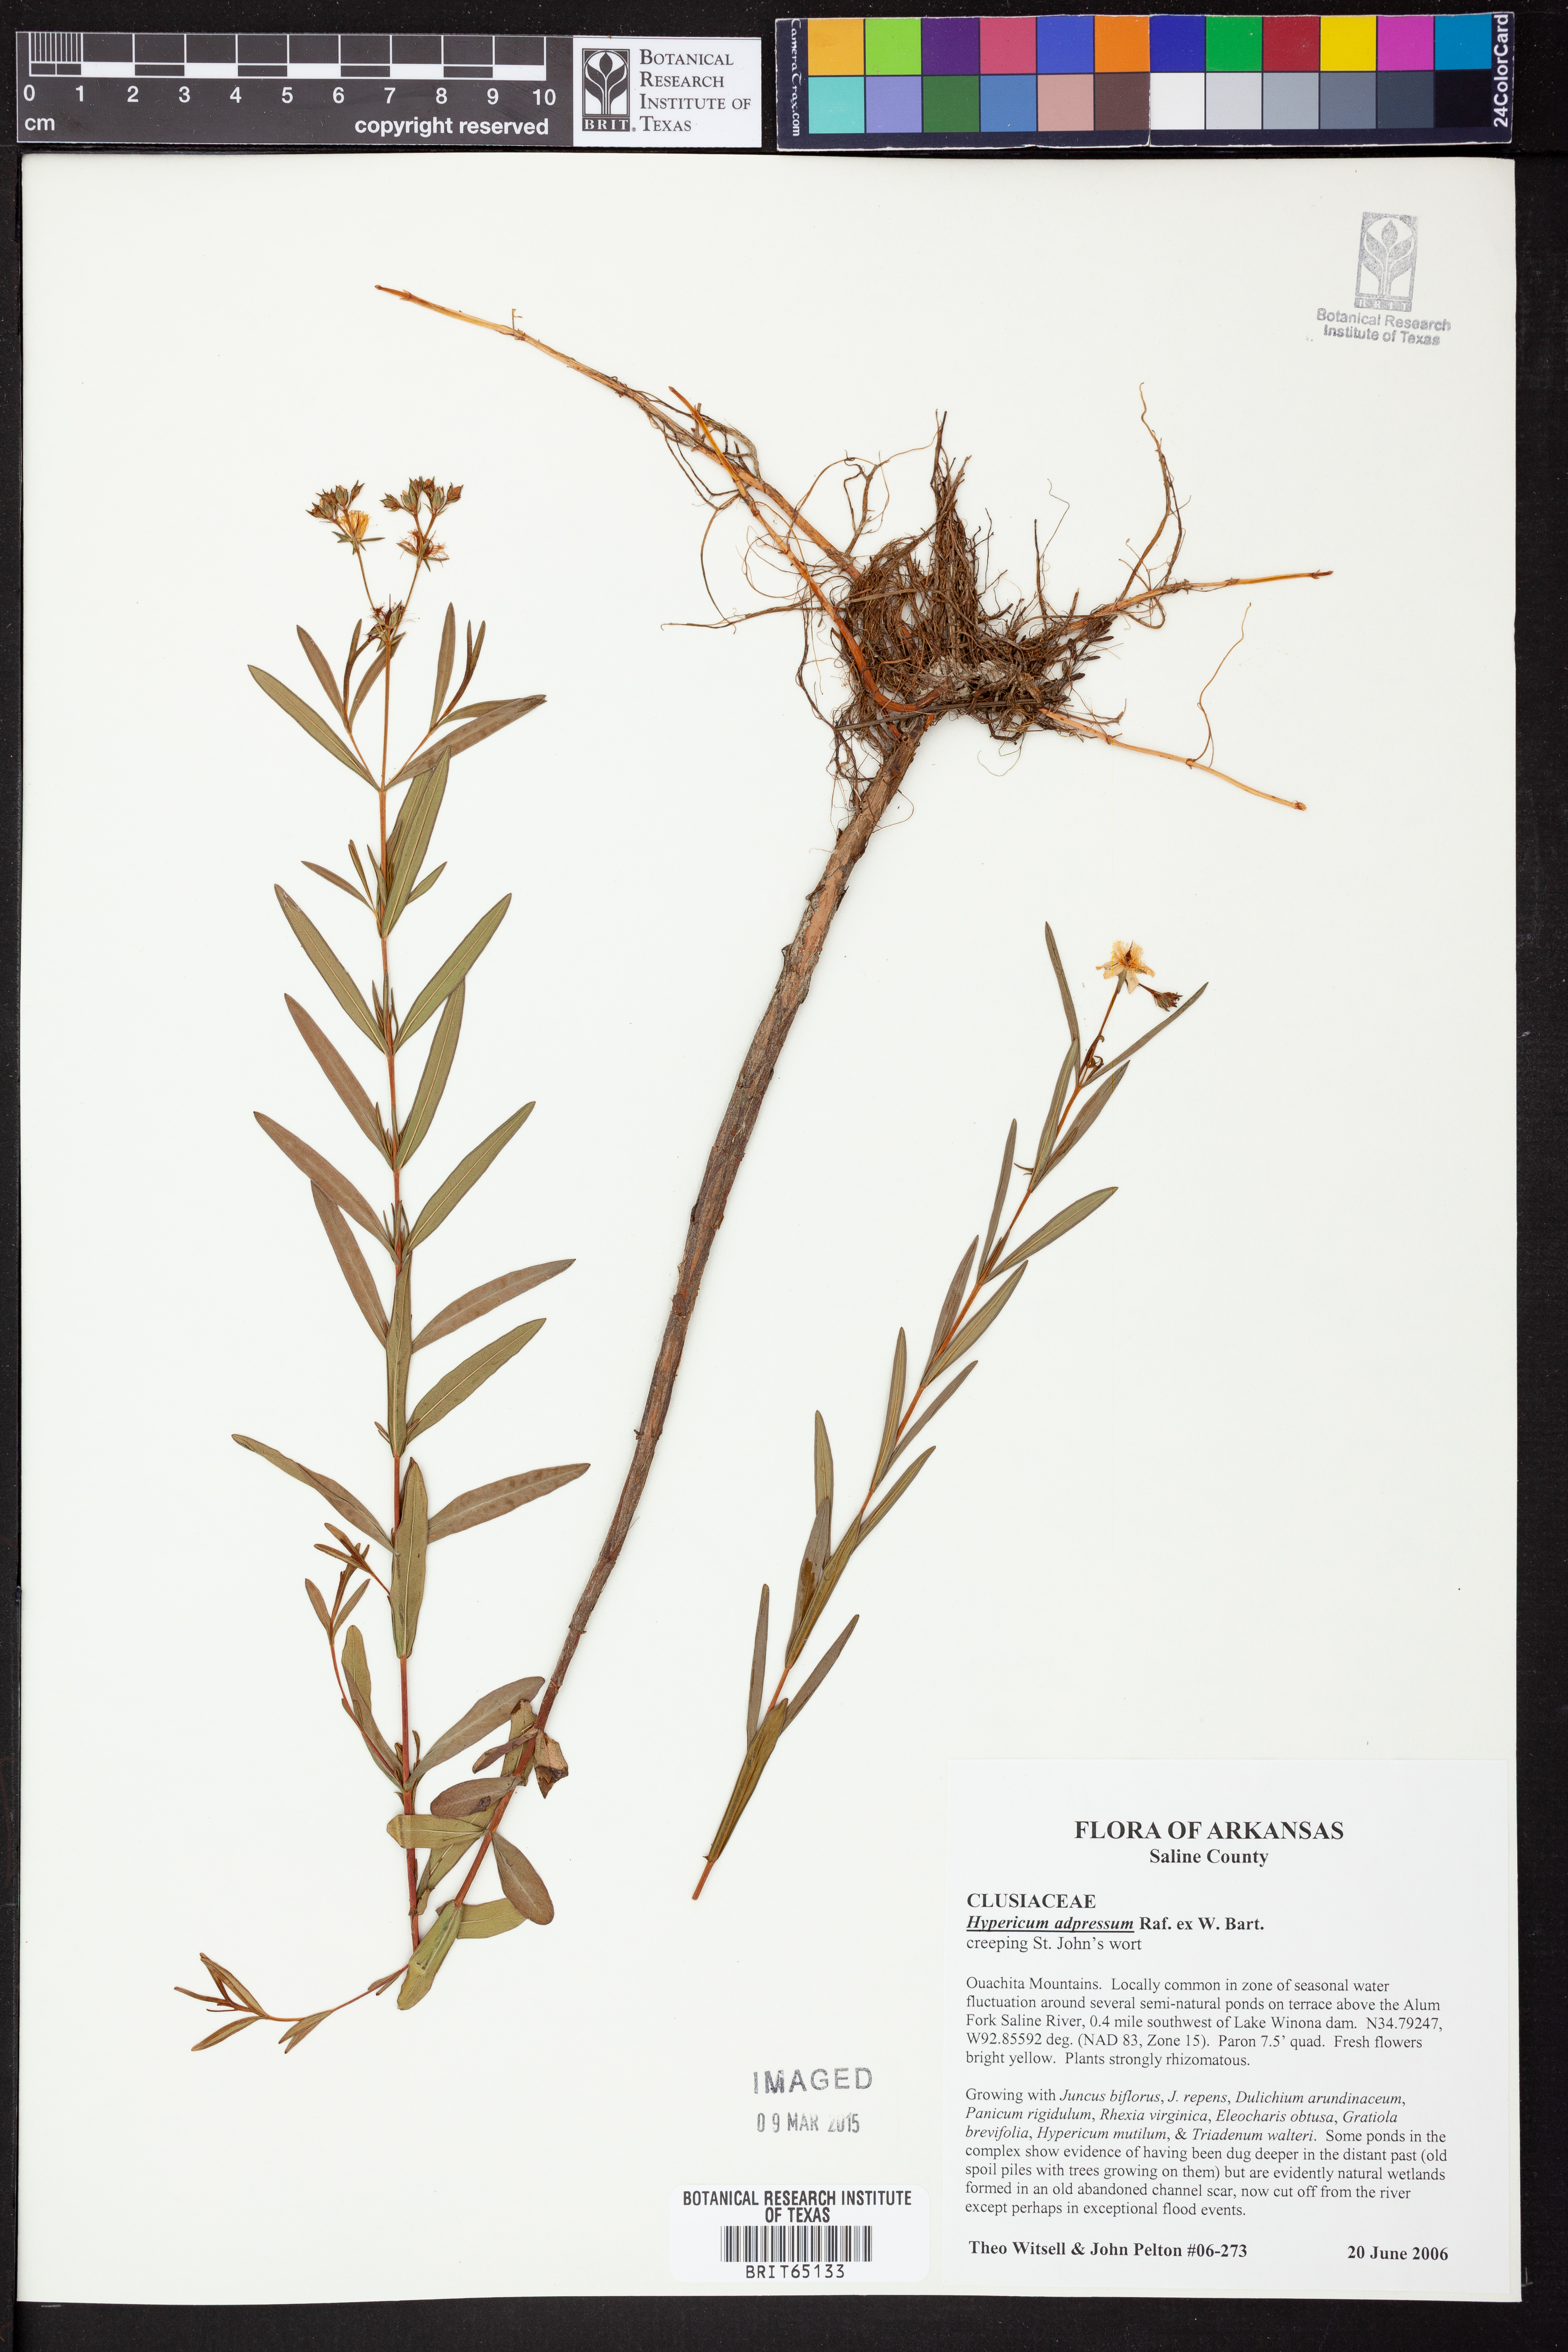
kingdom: Plantae
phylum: Tracheophyta
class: Magnoliopsida
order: Malpighiales
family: Hypericaceae
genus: Hypericum
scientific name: Hypericum
